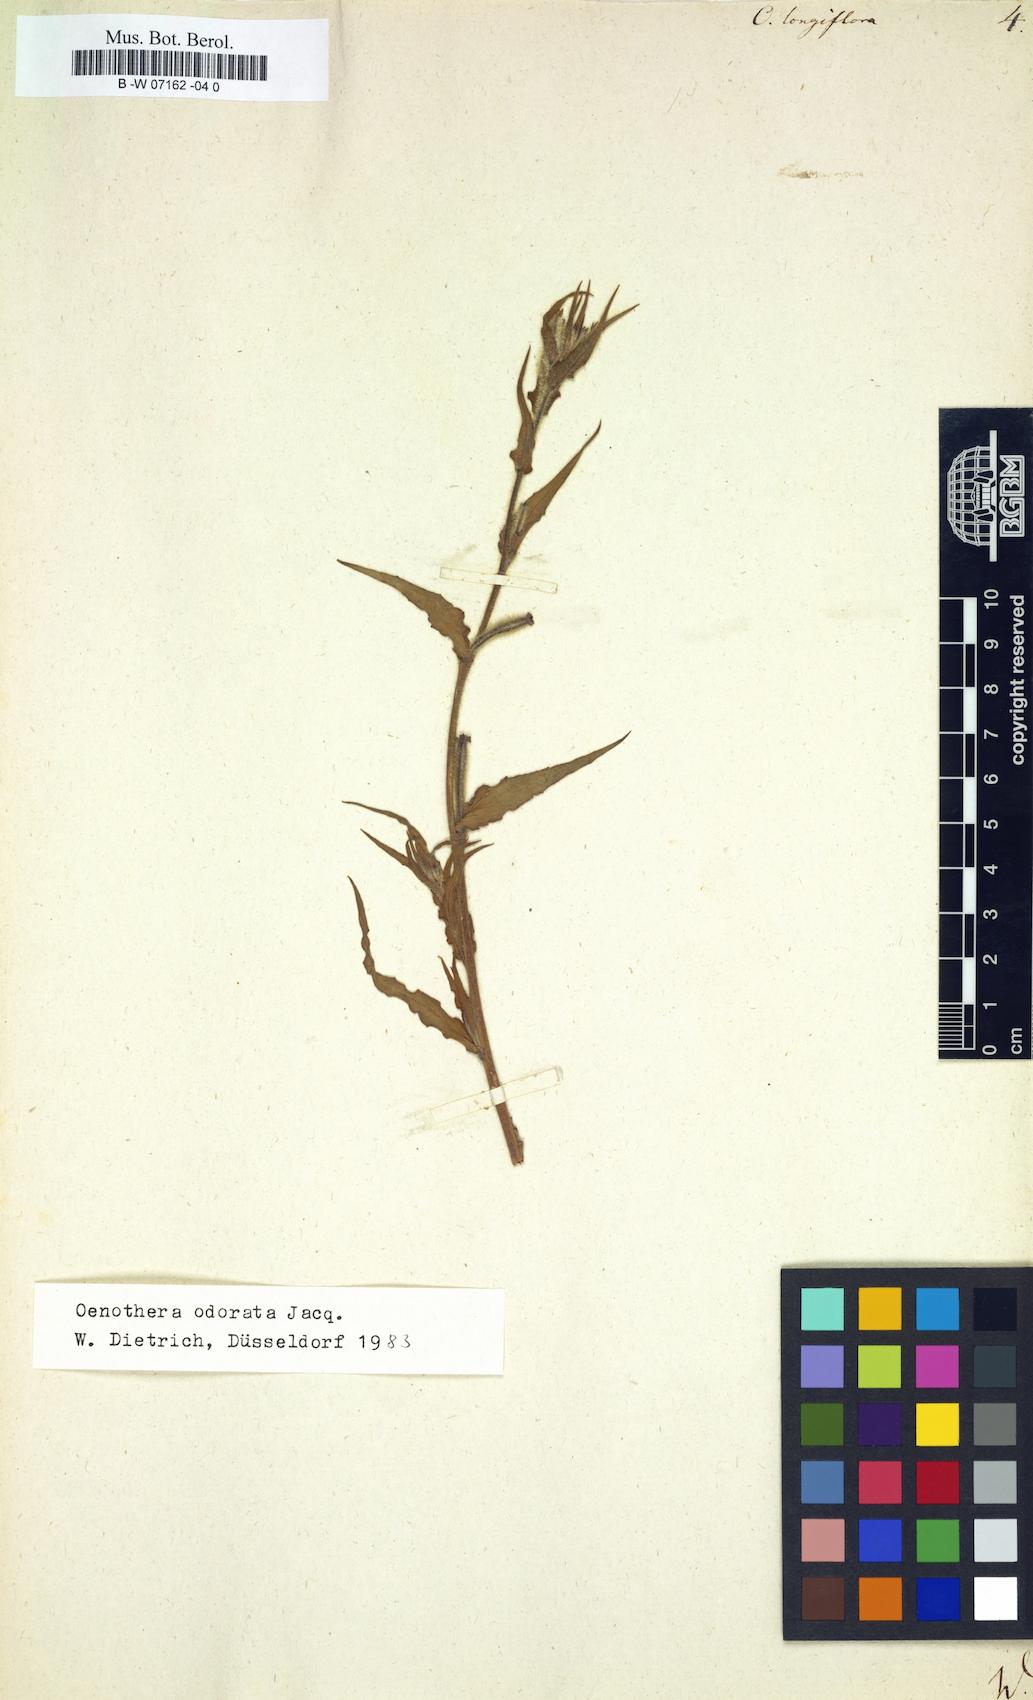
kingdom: Plantae
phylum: Tracheophyta
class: Magnoliopsida
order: Myrtales
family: Onagraceae
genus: Oenothera
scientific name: Oenothera longiflora
